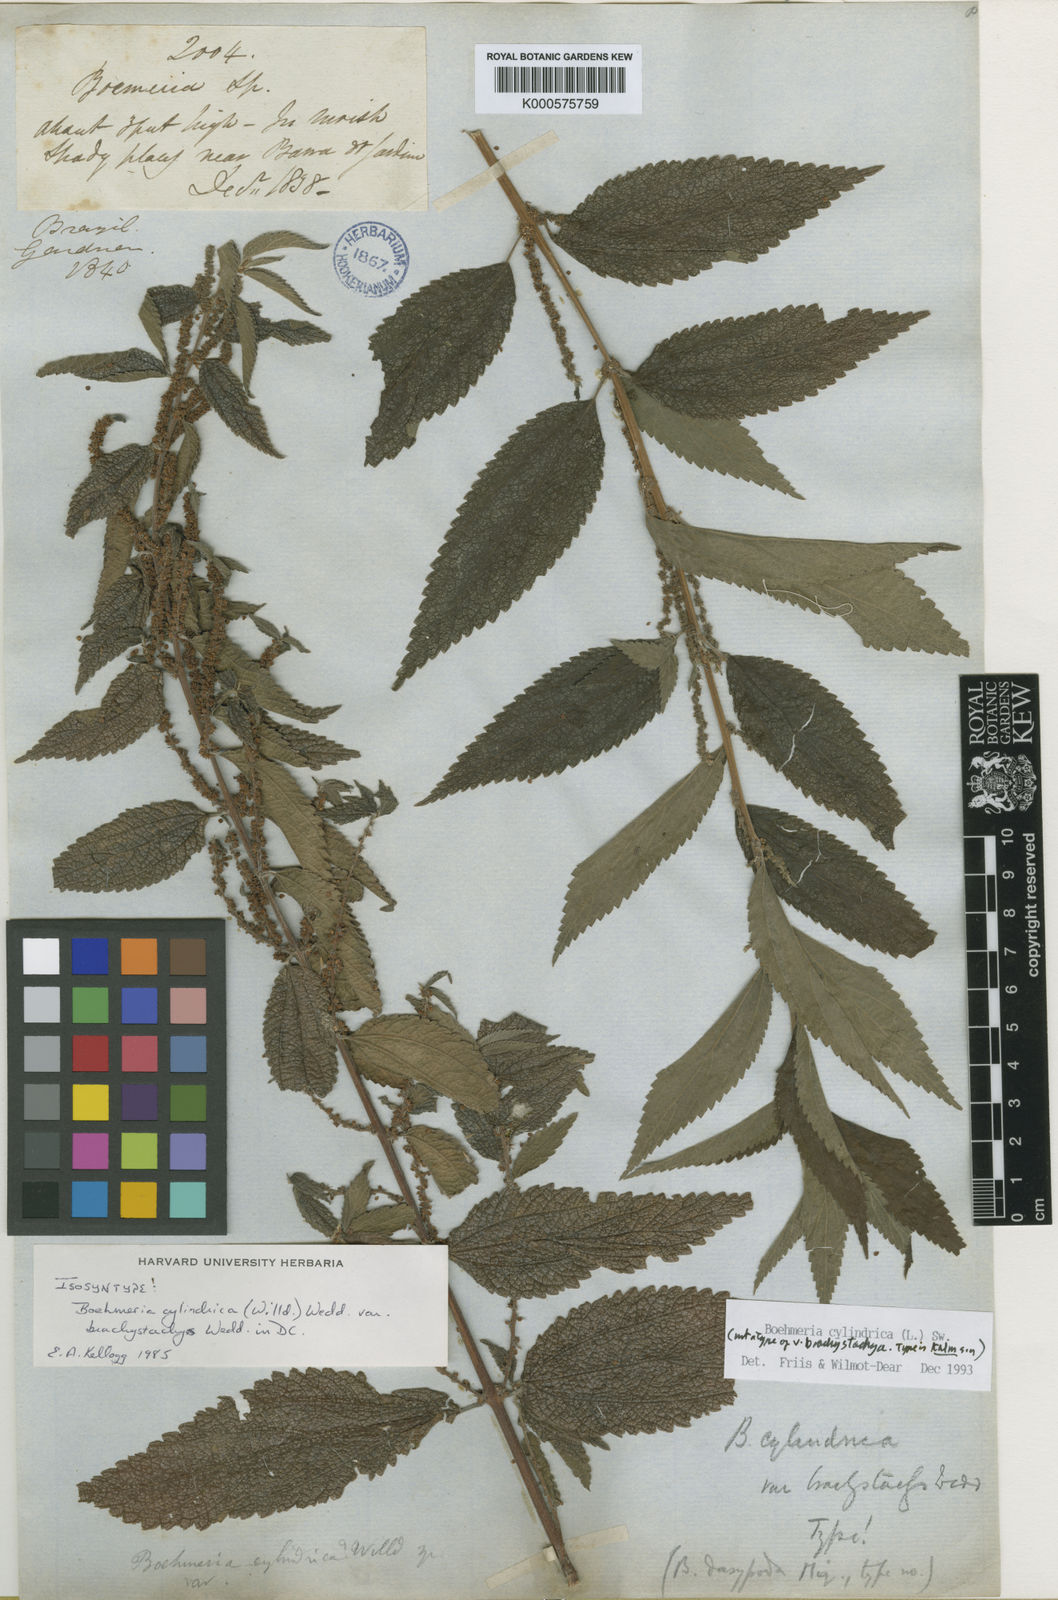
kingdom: Plantae
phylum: Tracheophyta
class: Magnoliopsida
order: Rosales
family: Urticaceae
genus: Boehmeria
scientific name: Boehmeria cylindrica
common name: Bog-hemp
